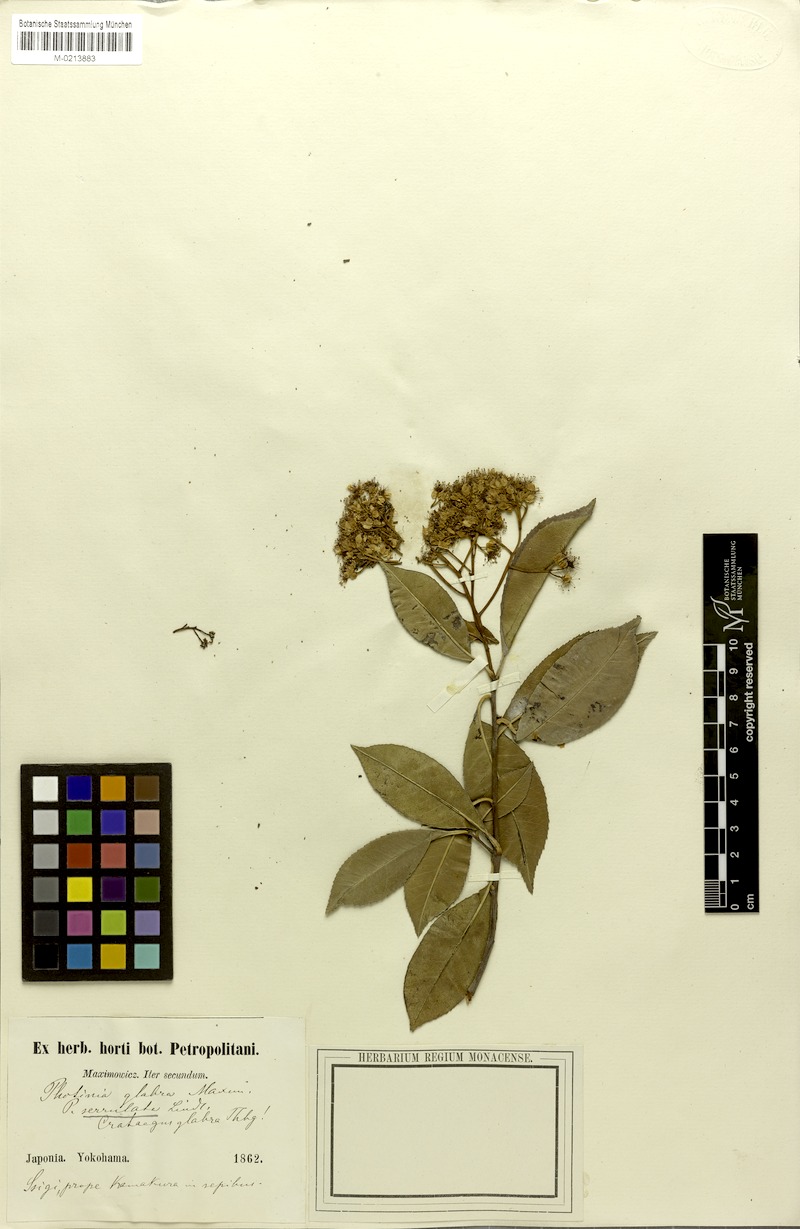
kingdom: Plantae
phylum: Tracheophyta
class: Magnoliopsida
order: Rosales
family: Rosaceae
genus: Photinia
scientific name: Photinia serratifolia
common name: Taiwanese photinia
